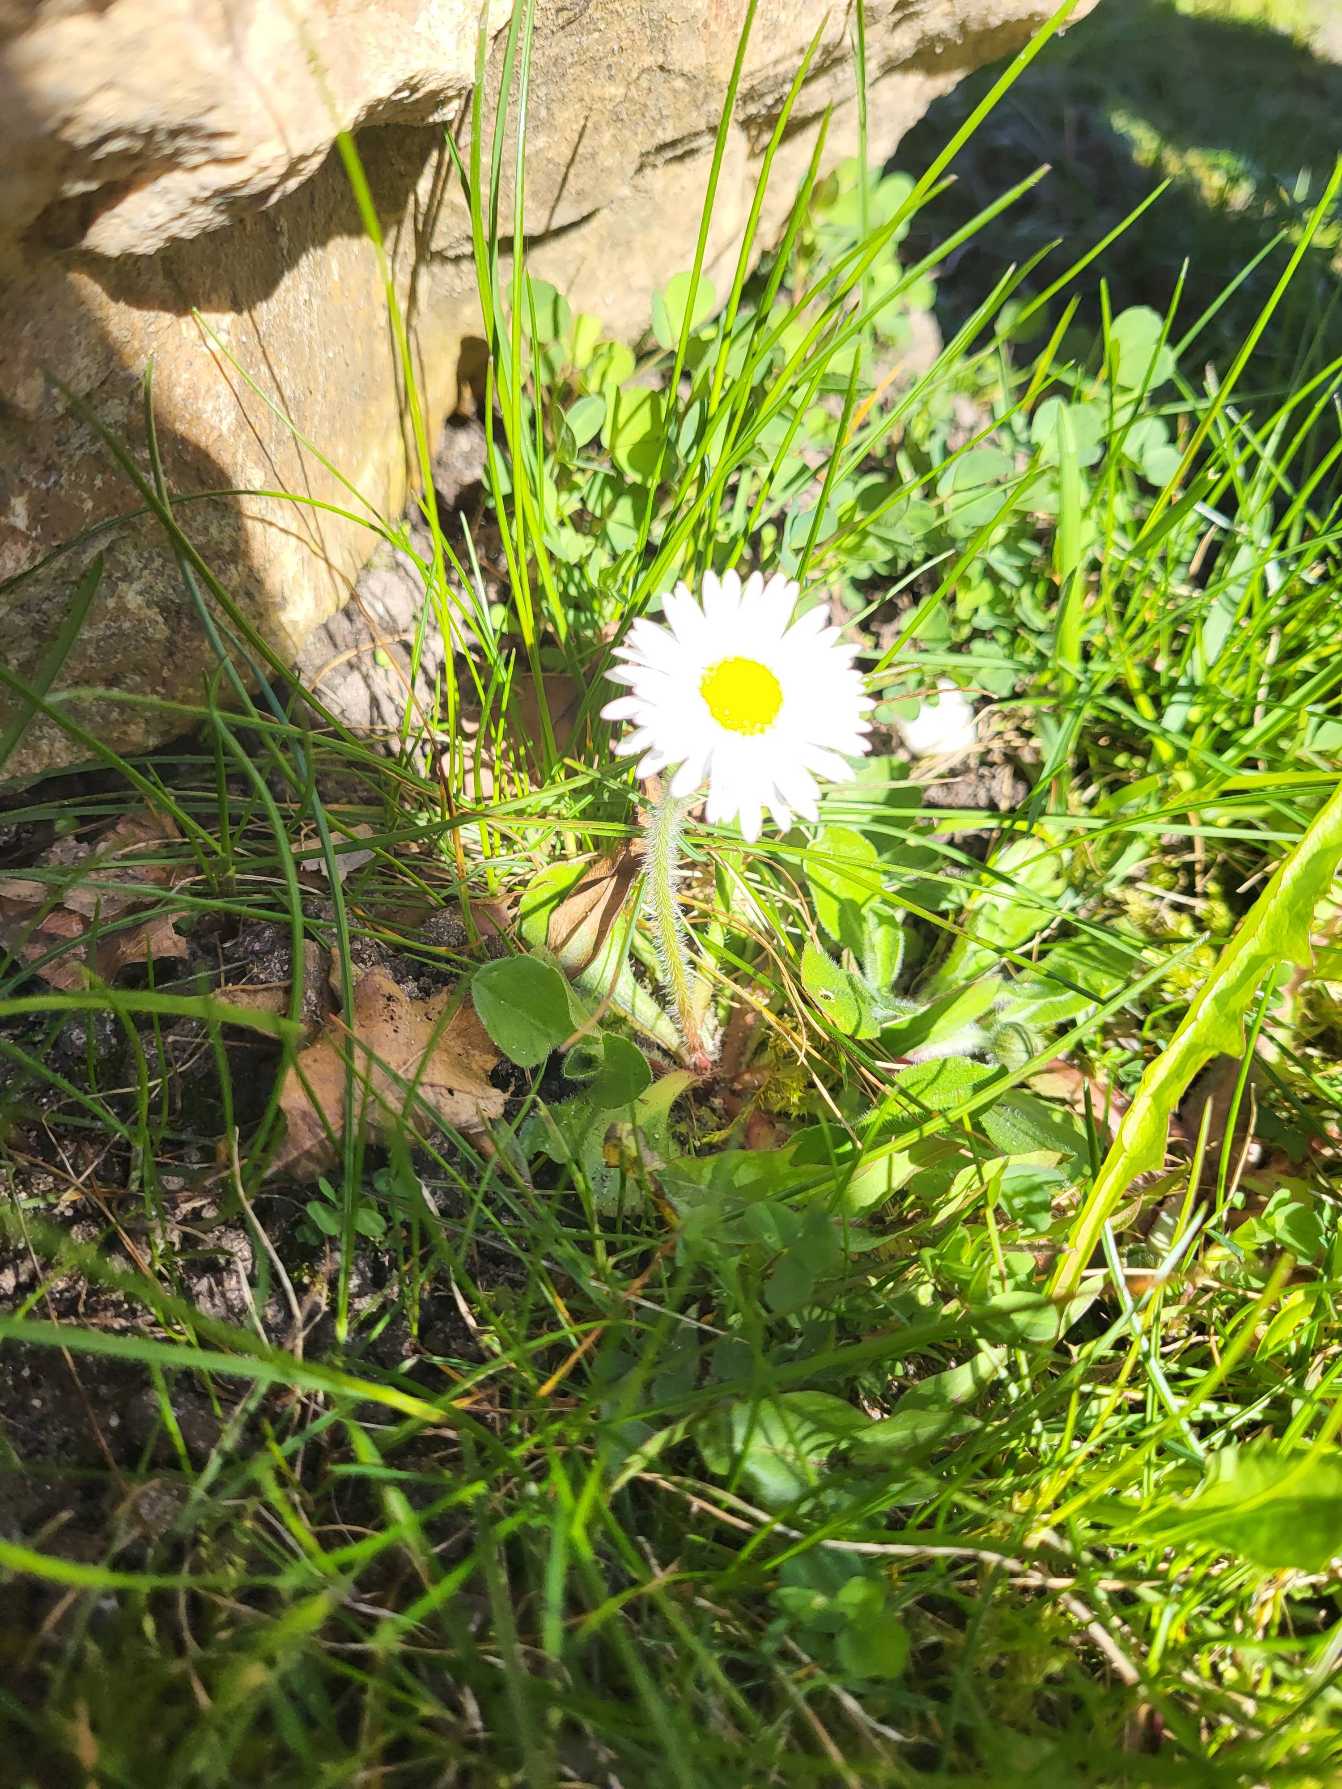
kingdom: Plantae
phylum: Tracheophyta
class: Magnoliopsida
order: Asterales
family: Asteraceae
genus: Bellis
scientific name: Bellis perennis
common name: Tusindfryd
